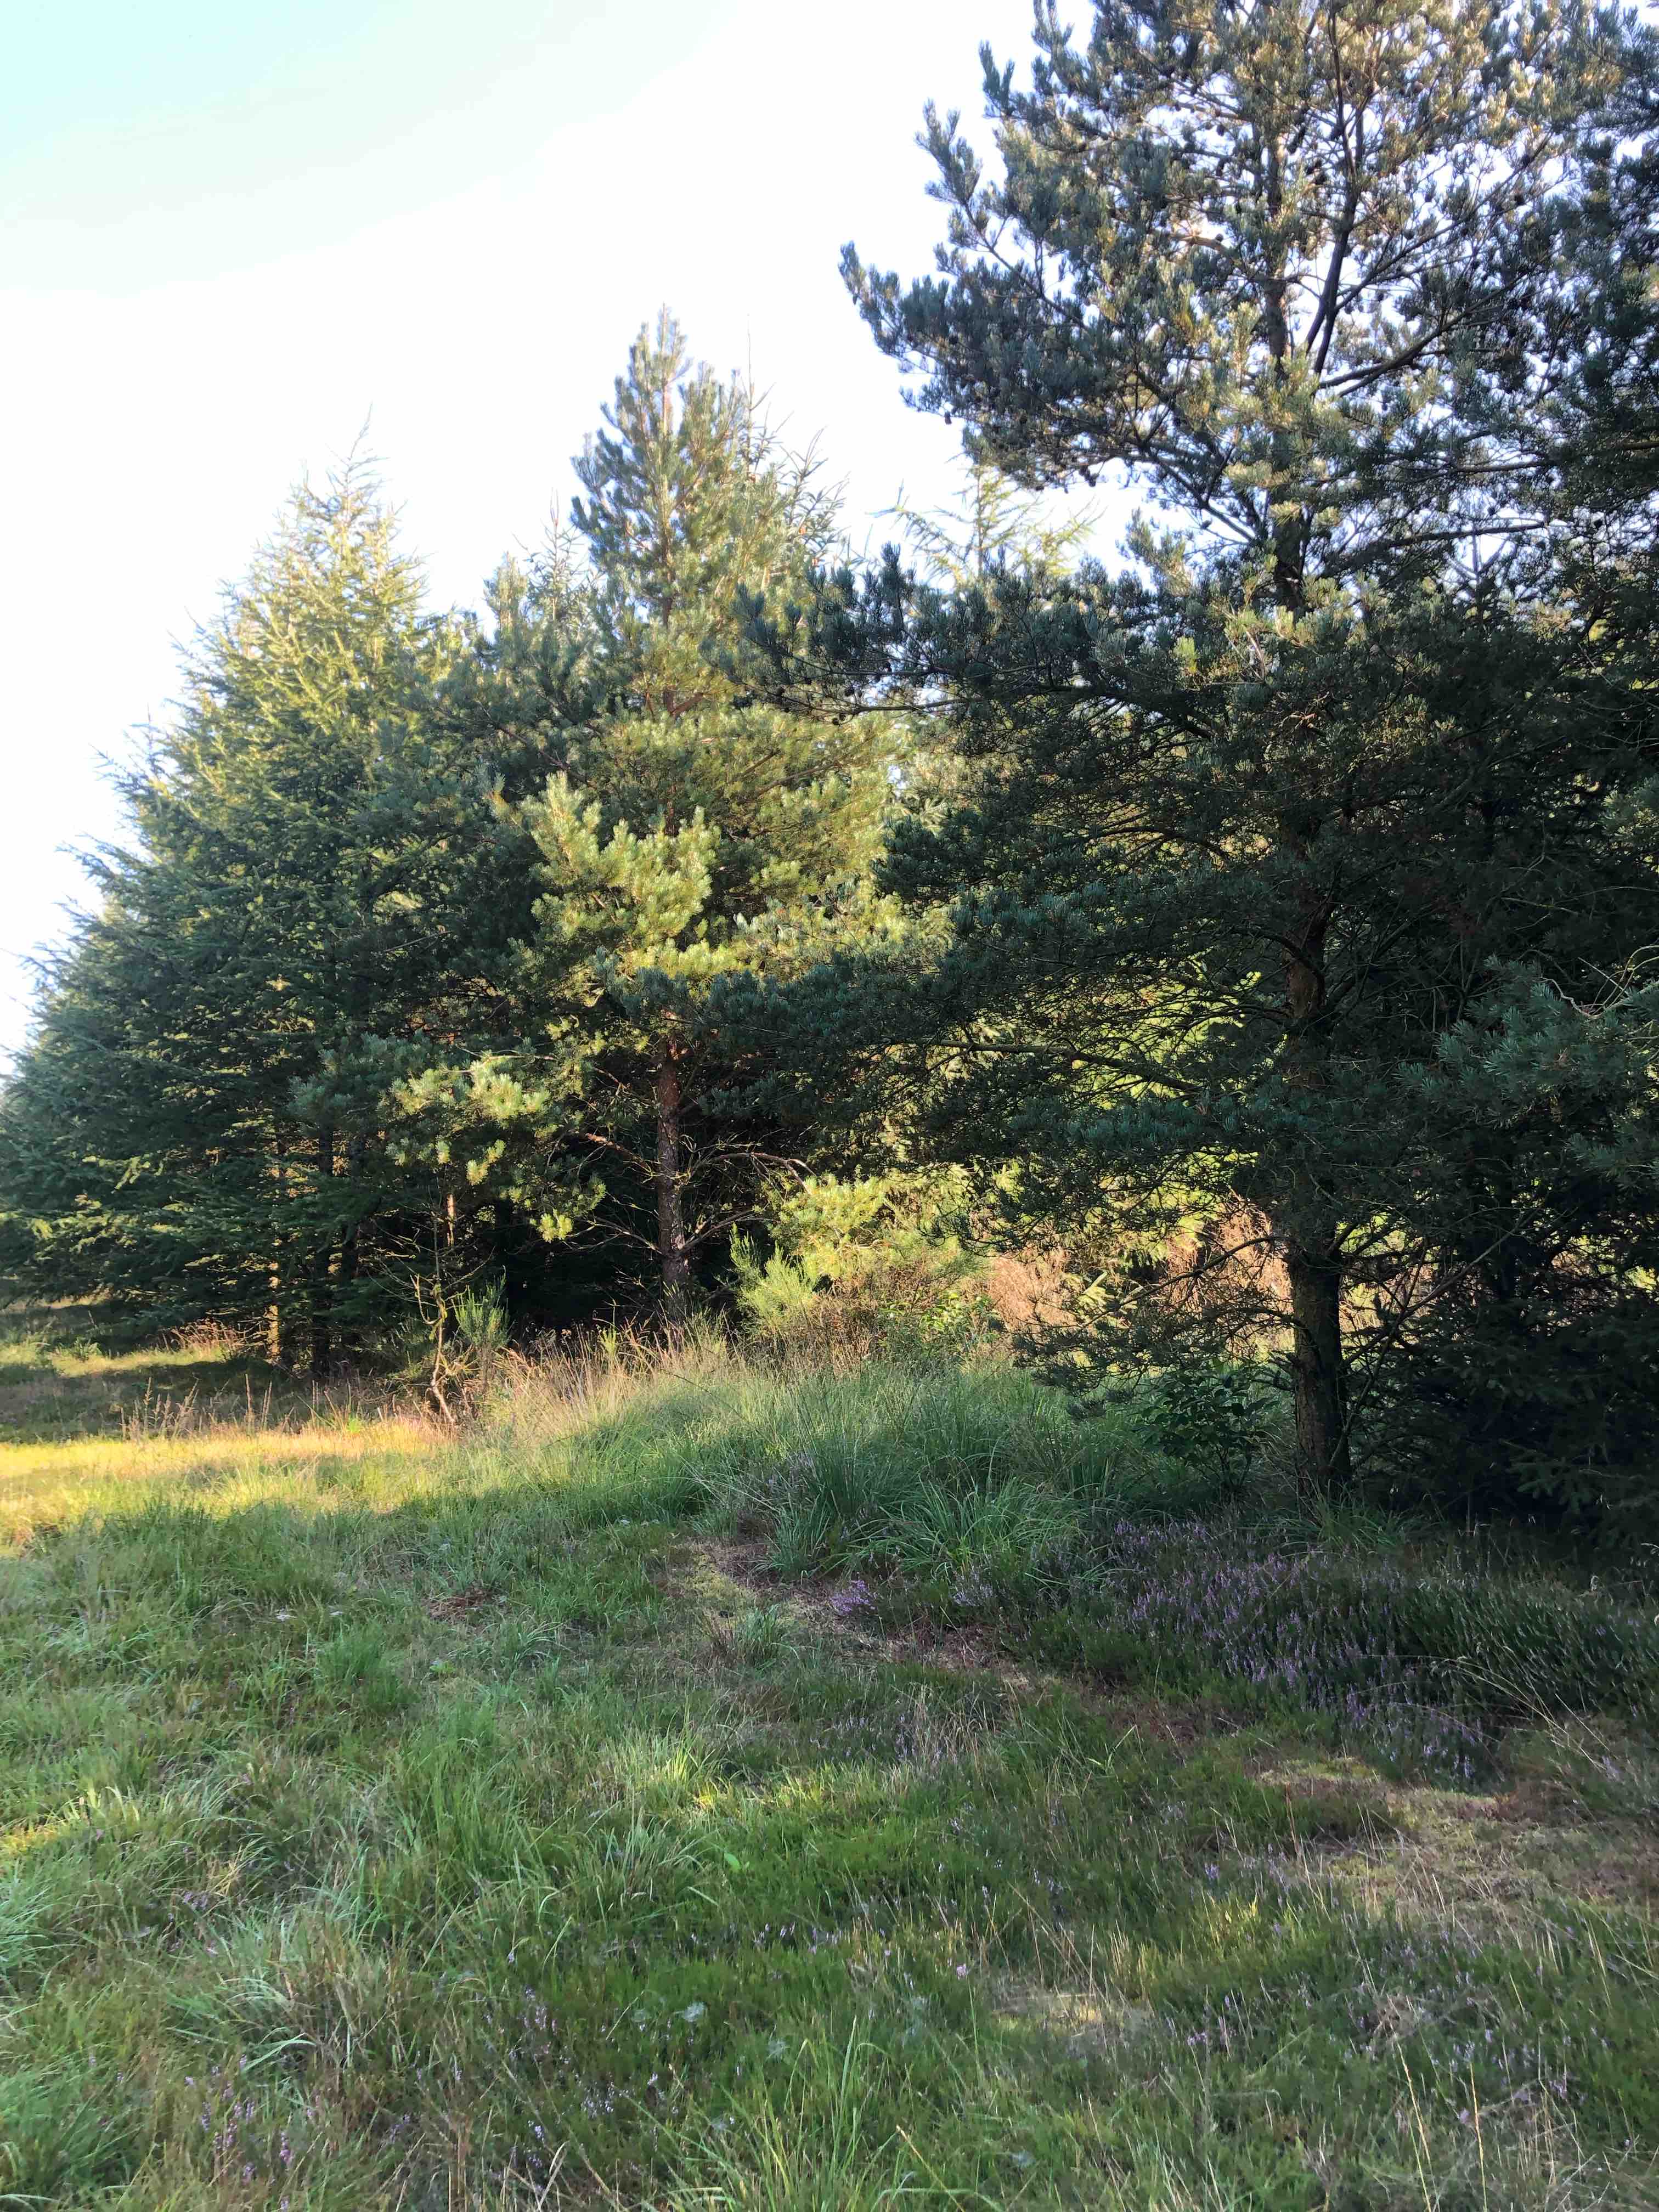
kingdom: Fungi
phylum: Basidiomycota
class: Agaricomycetes
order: Boletales
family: Gomphidiaceae
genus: Gomphidius
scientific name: Gomphidius roseus
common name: rosenrød slimslør
